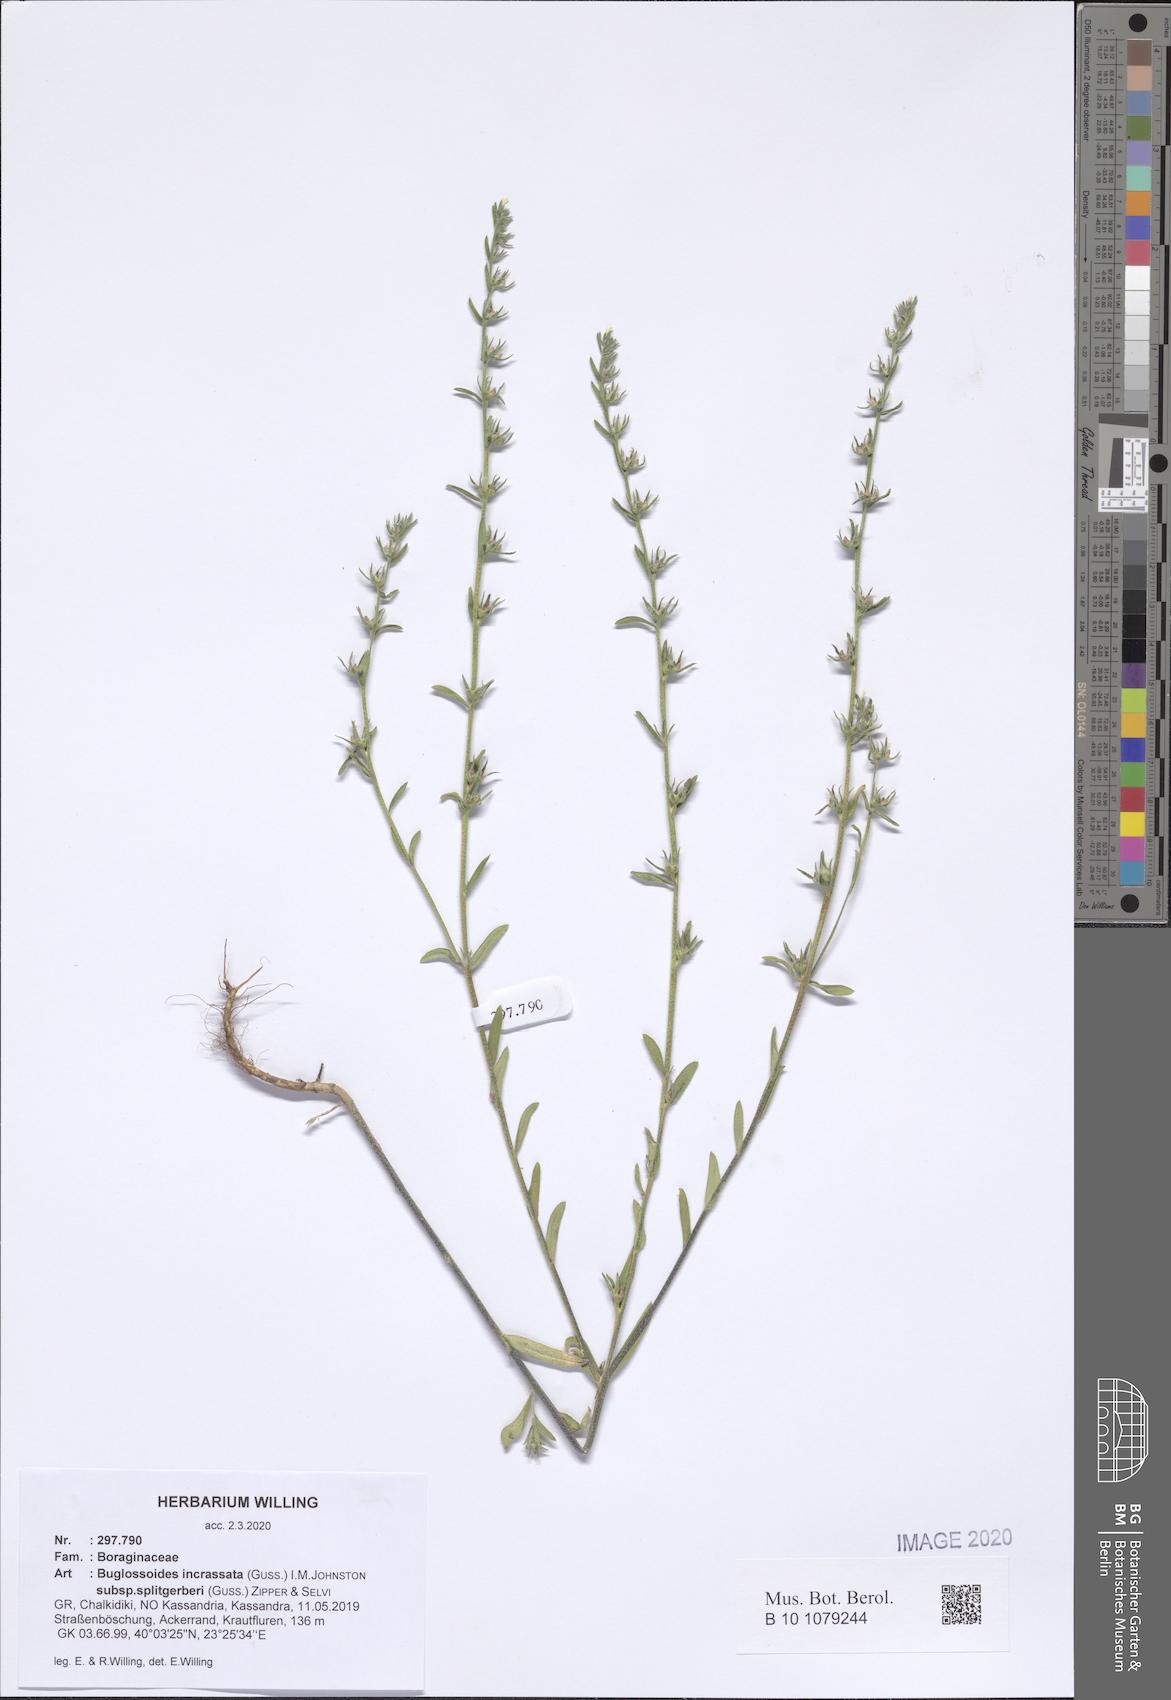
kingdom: Plantae
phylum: Tracheophyta
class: Magnoliopsida
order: Boraginales
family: Boraginaceae
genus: Buglossoides
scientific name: Buglossoides incrassata
